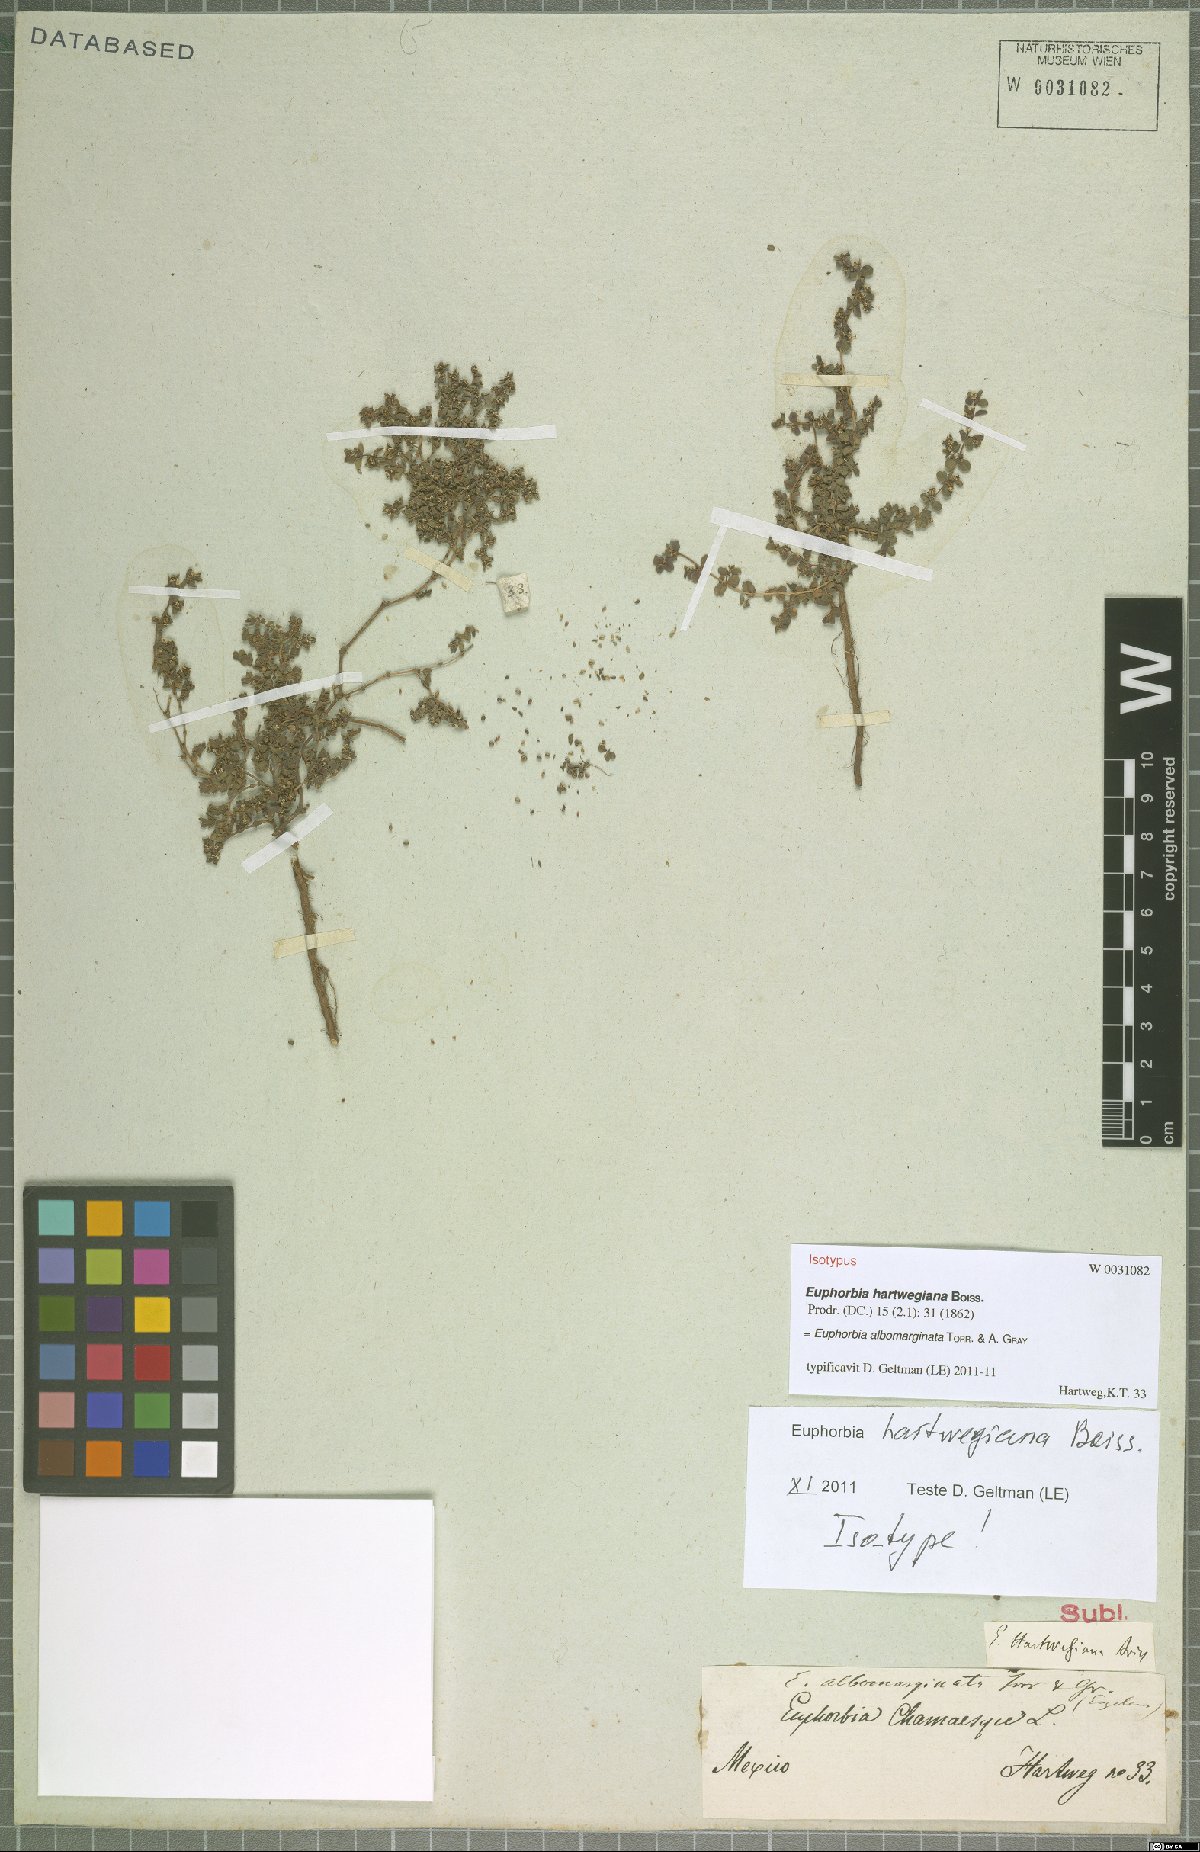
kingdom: Plantae
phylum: Tracheophyta
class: Magnoliopsida
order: Malpighiales
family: Euphorbiaceae
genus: Euphorbia
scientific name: Euphorbia albomarginata
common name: Whitemargin sandmat
